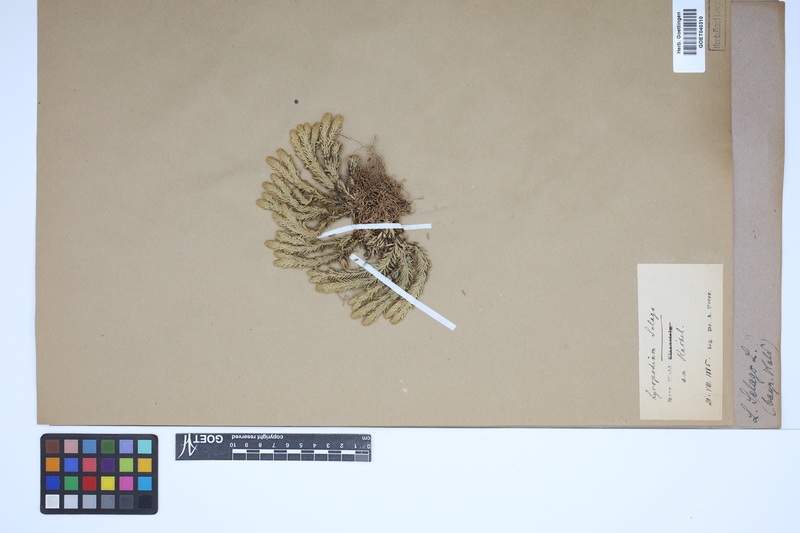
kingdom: Plantae
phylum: Tracheophyta
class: Lycopodiopsida
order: Lycopodiales
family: Lycopodiaceae
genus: Huperzia
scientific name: Huperzia selago
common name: Northern firmoss
